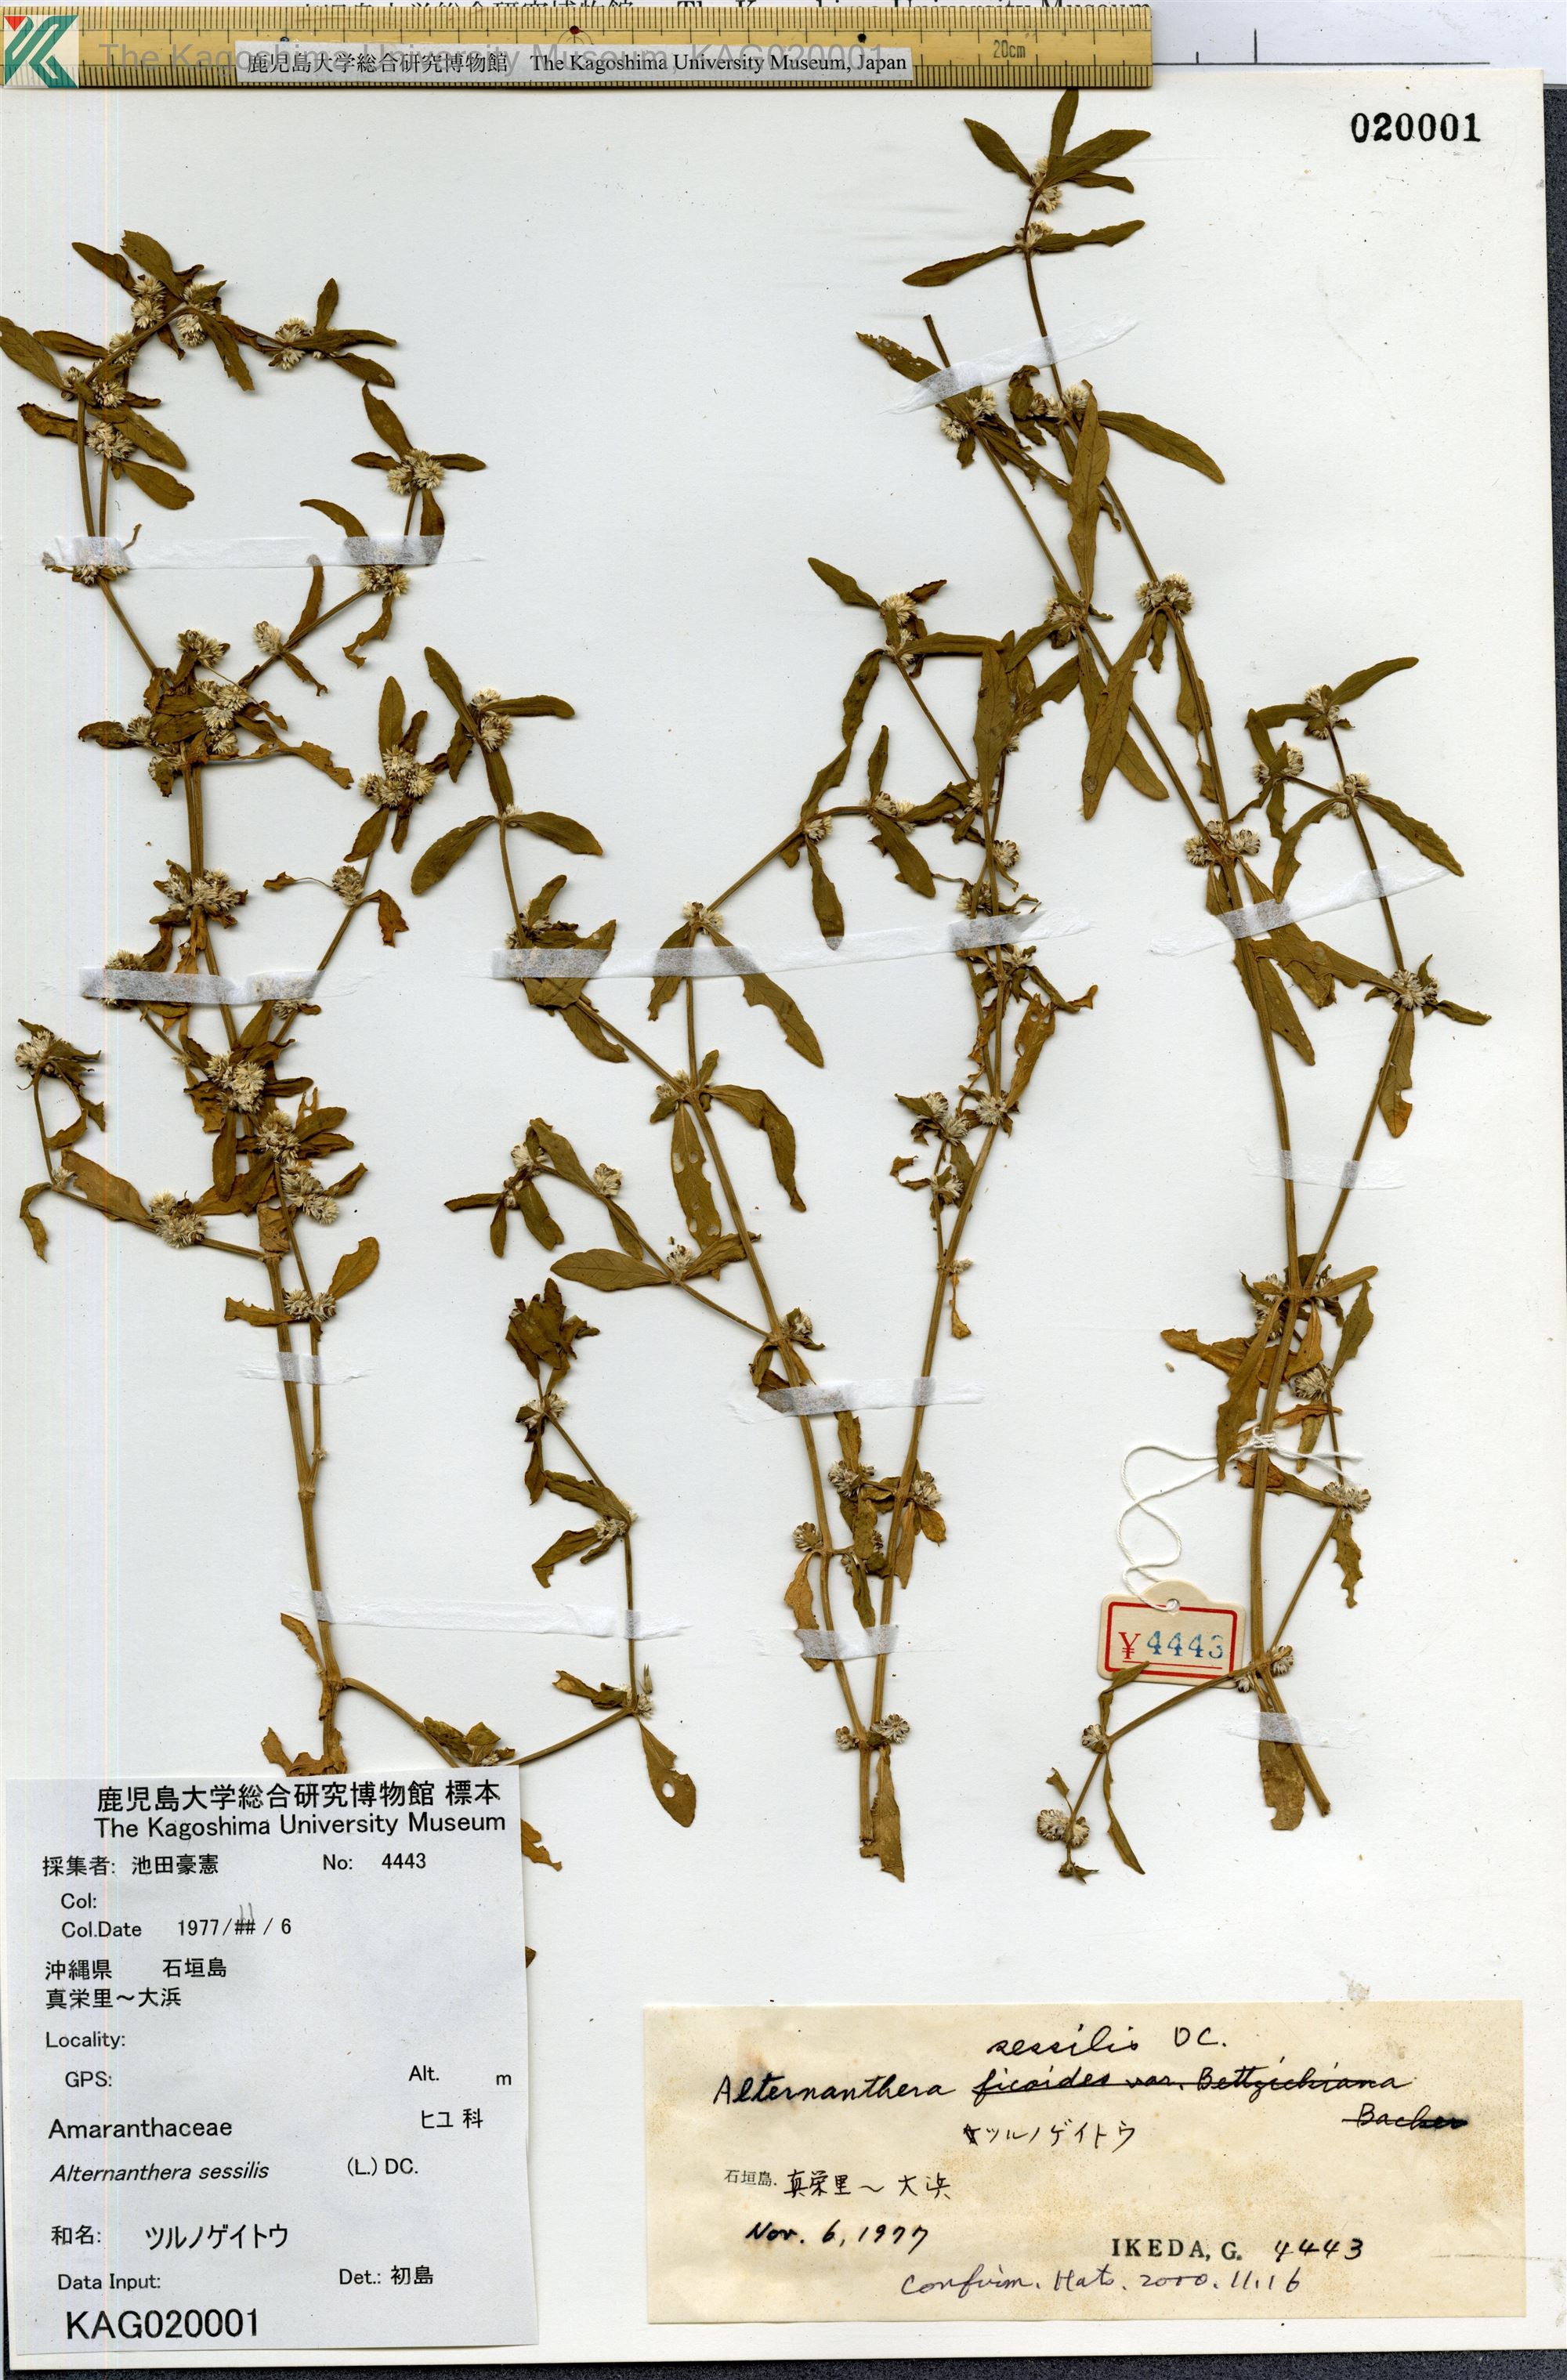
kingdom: Plantae
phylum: Tracheophyta
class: Magnoliopsida
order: Caryophyllales
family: Amaranthaceae
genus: Alternanthera
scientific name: Alternanthera sessilis
